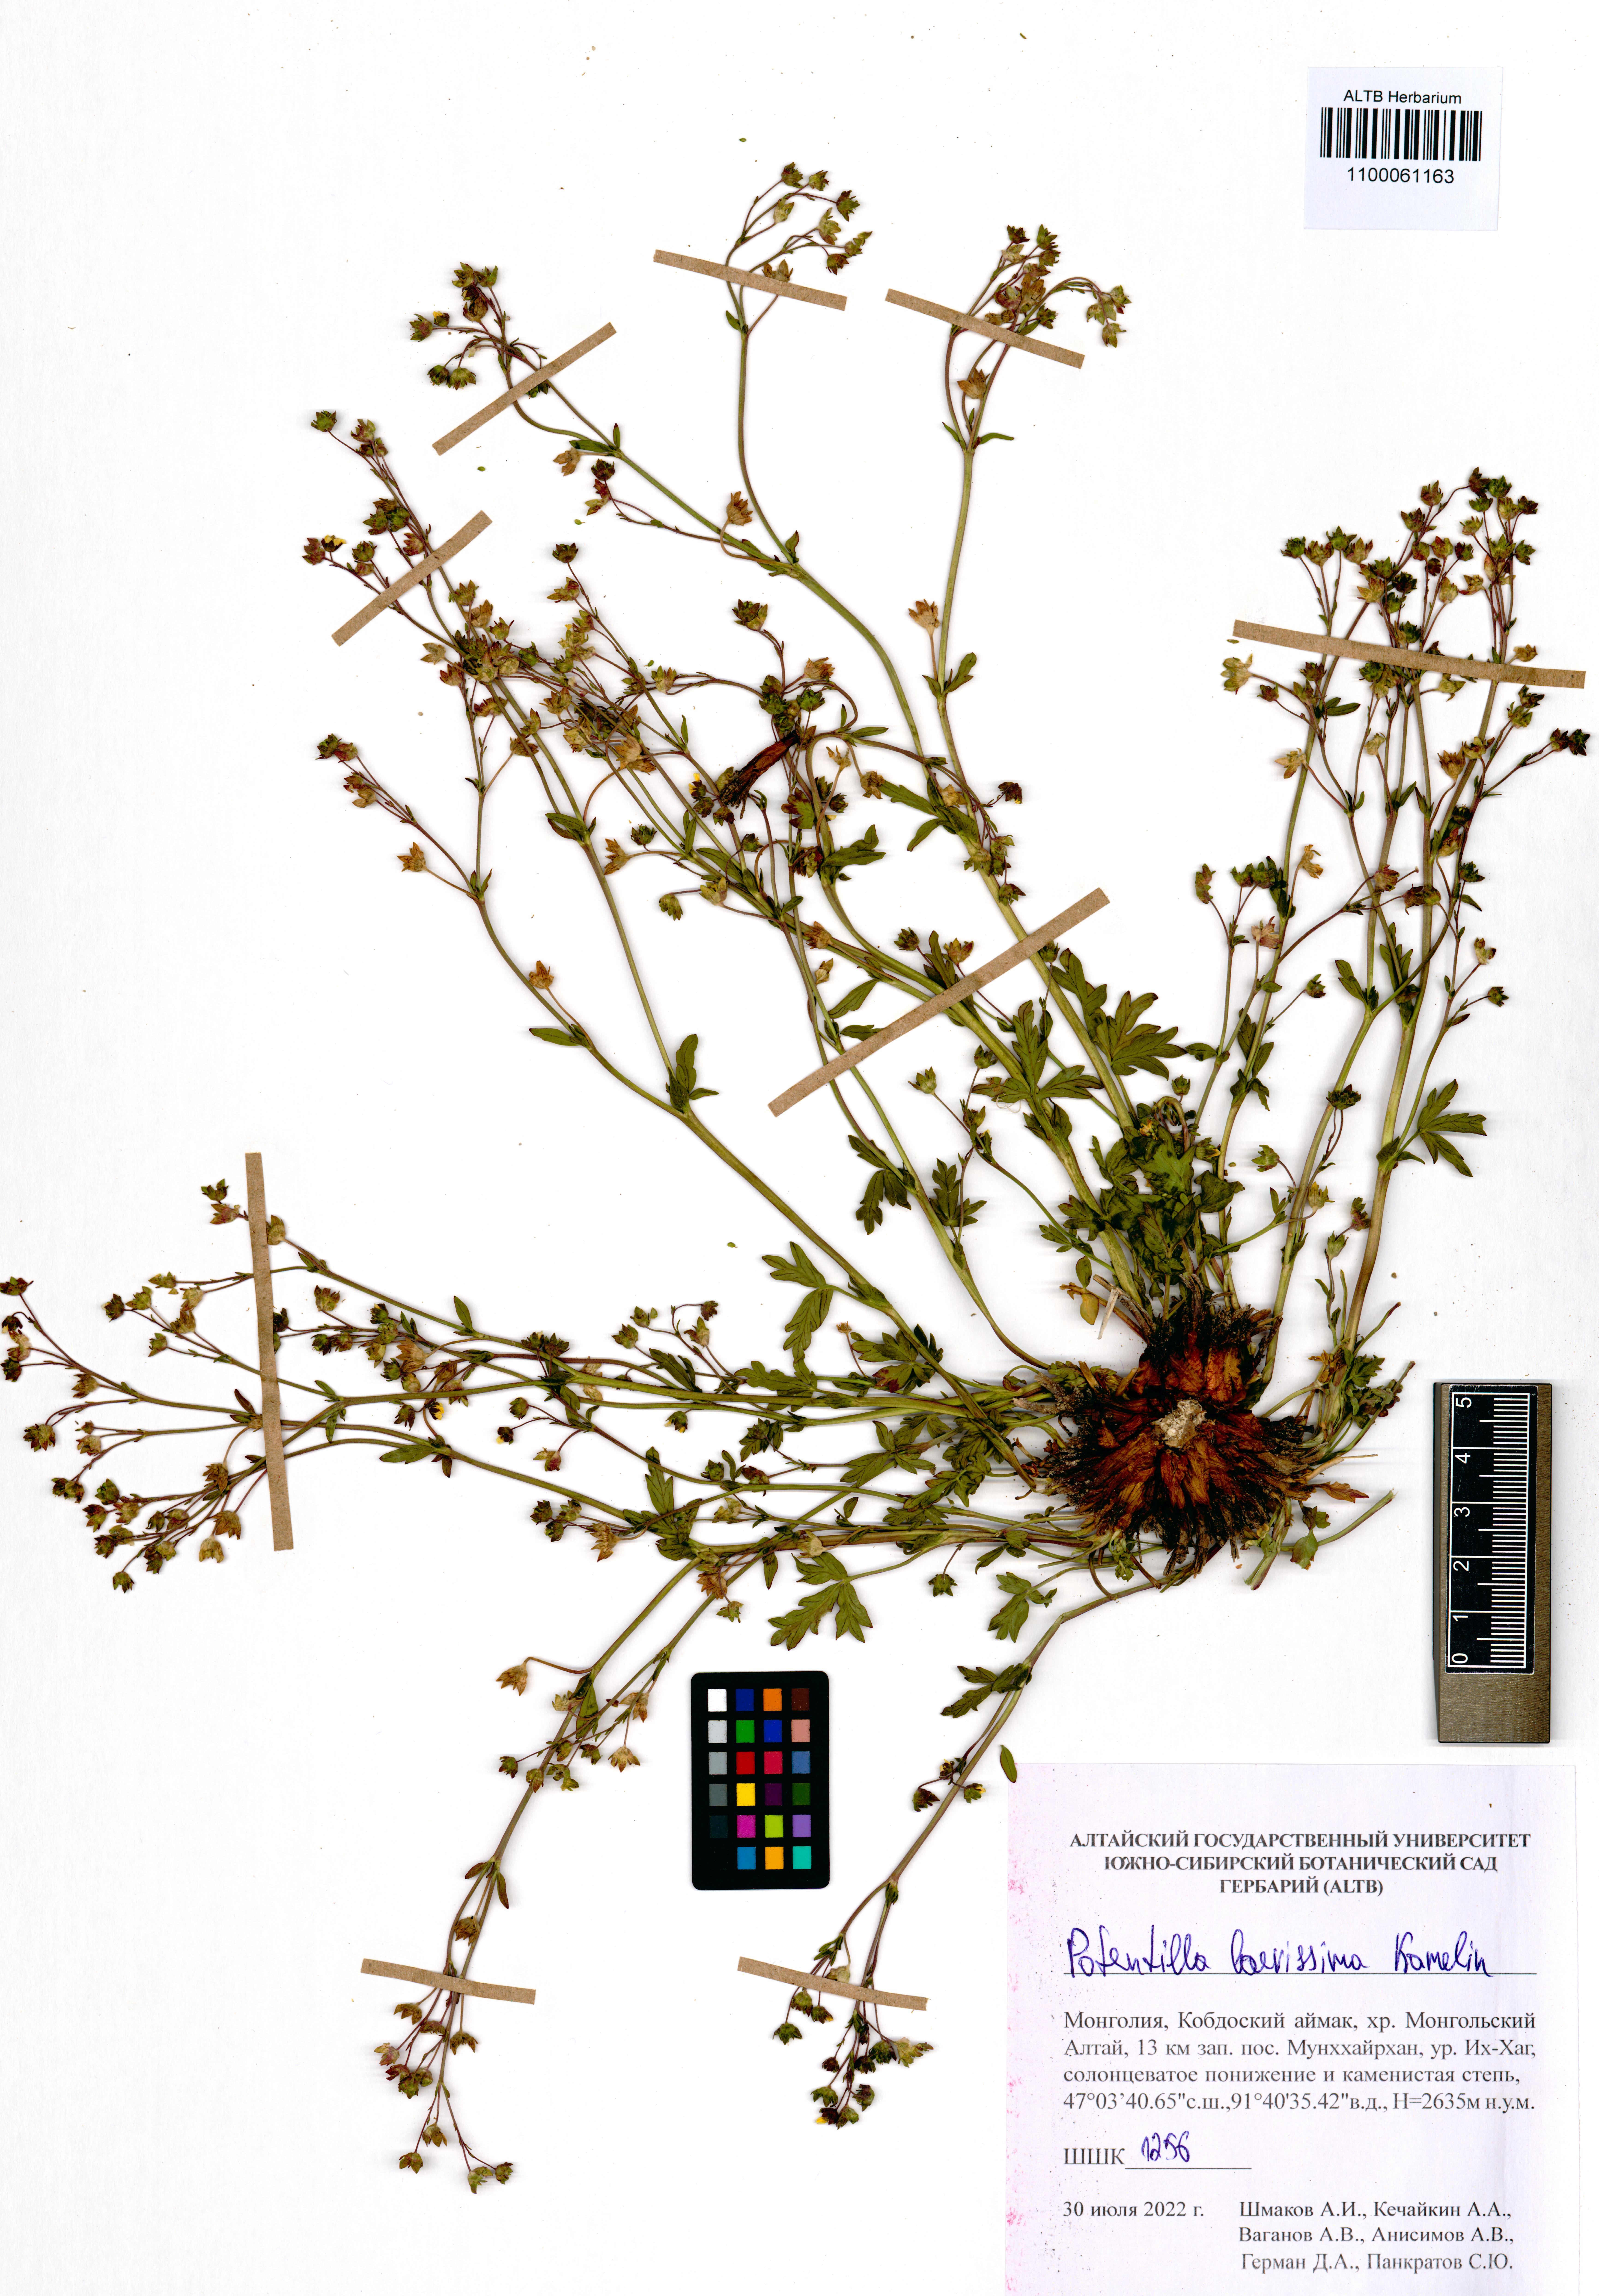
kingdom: Plantae
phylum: Tracheophyta
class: Magnoliopsida
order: Rosales
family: Rosaceae
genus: Potentilla
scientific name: Potentilla laevissima
